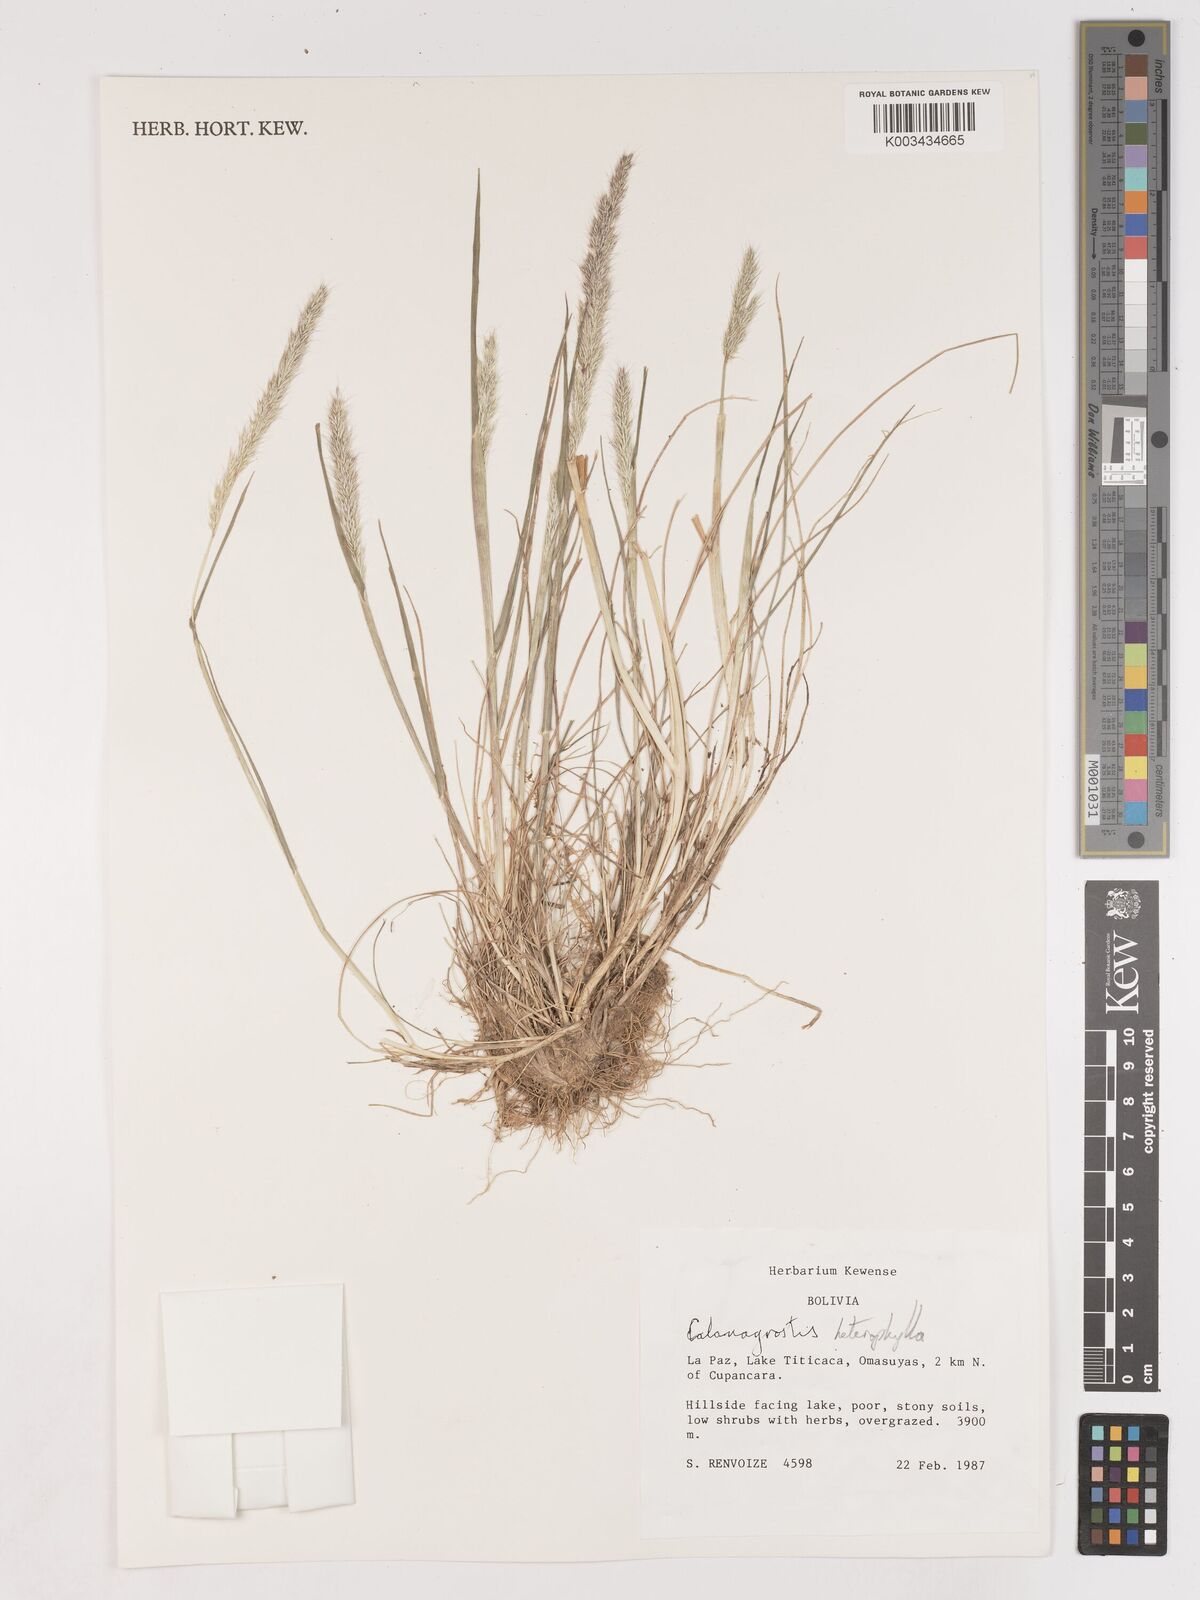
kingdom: Plantae
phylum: Tracheophyta
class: Liliopsida
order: Poales
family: Poaceae
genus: Cinnagrostis
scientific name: Cinnagrostis heterophylla
